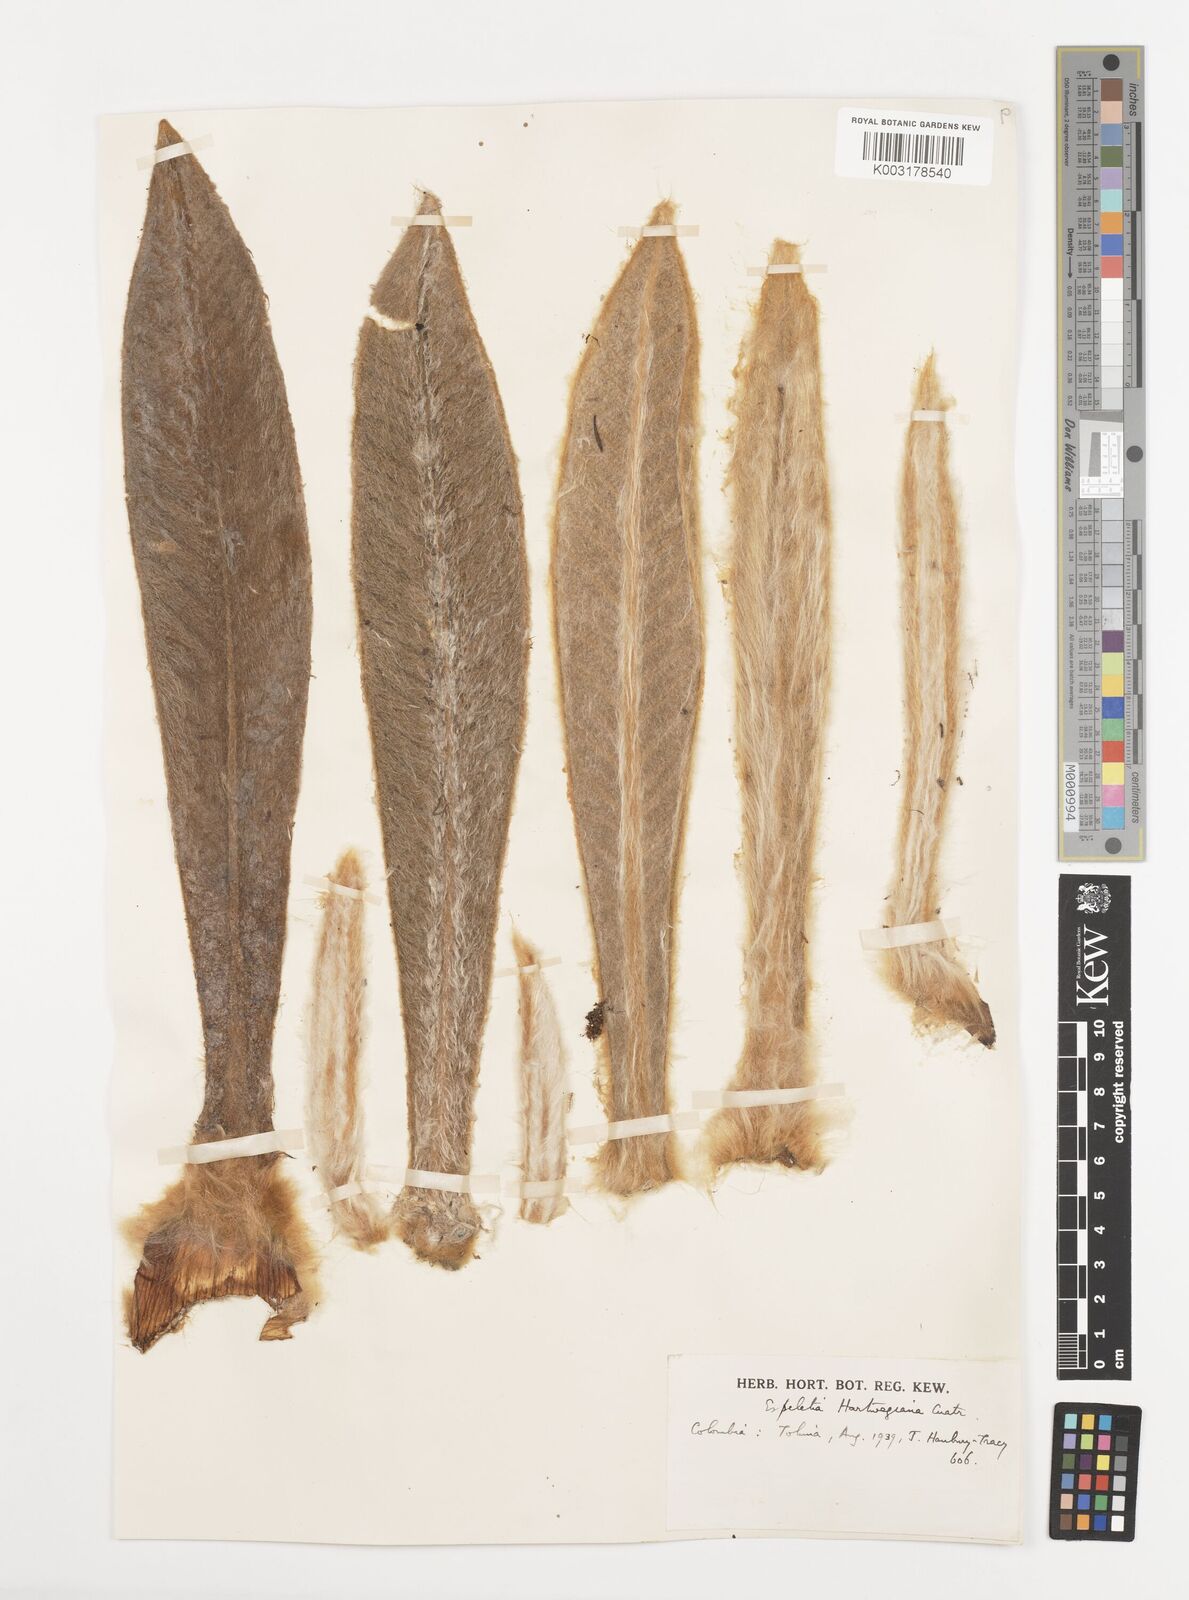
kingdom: Plantae
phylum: Tracheophyta
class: Magnoliopsida
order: Asterales
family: Asteraceae
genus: Espeletia
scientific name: Espeletia hartwegiana
